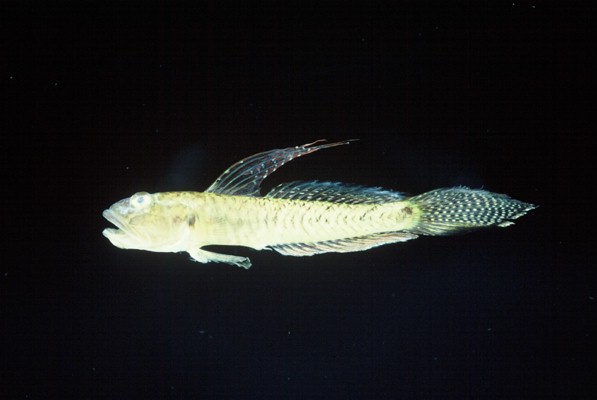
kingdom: Animalia
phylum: Chordata
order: Perciformes
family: Gobiidae
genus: Oligolepis
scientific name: Oligolepis keiensis
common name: Kei goby
